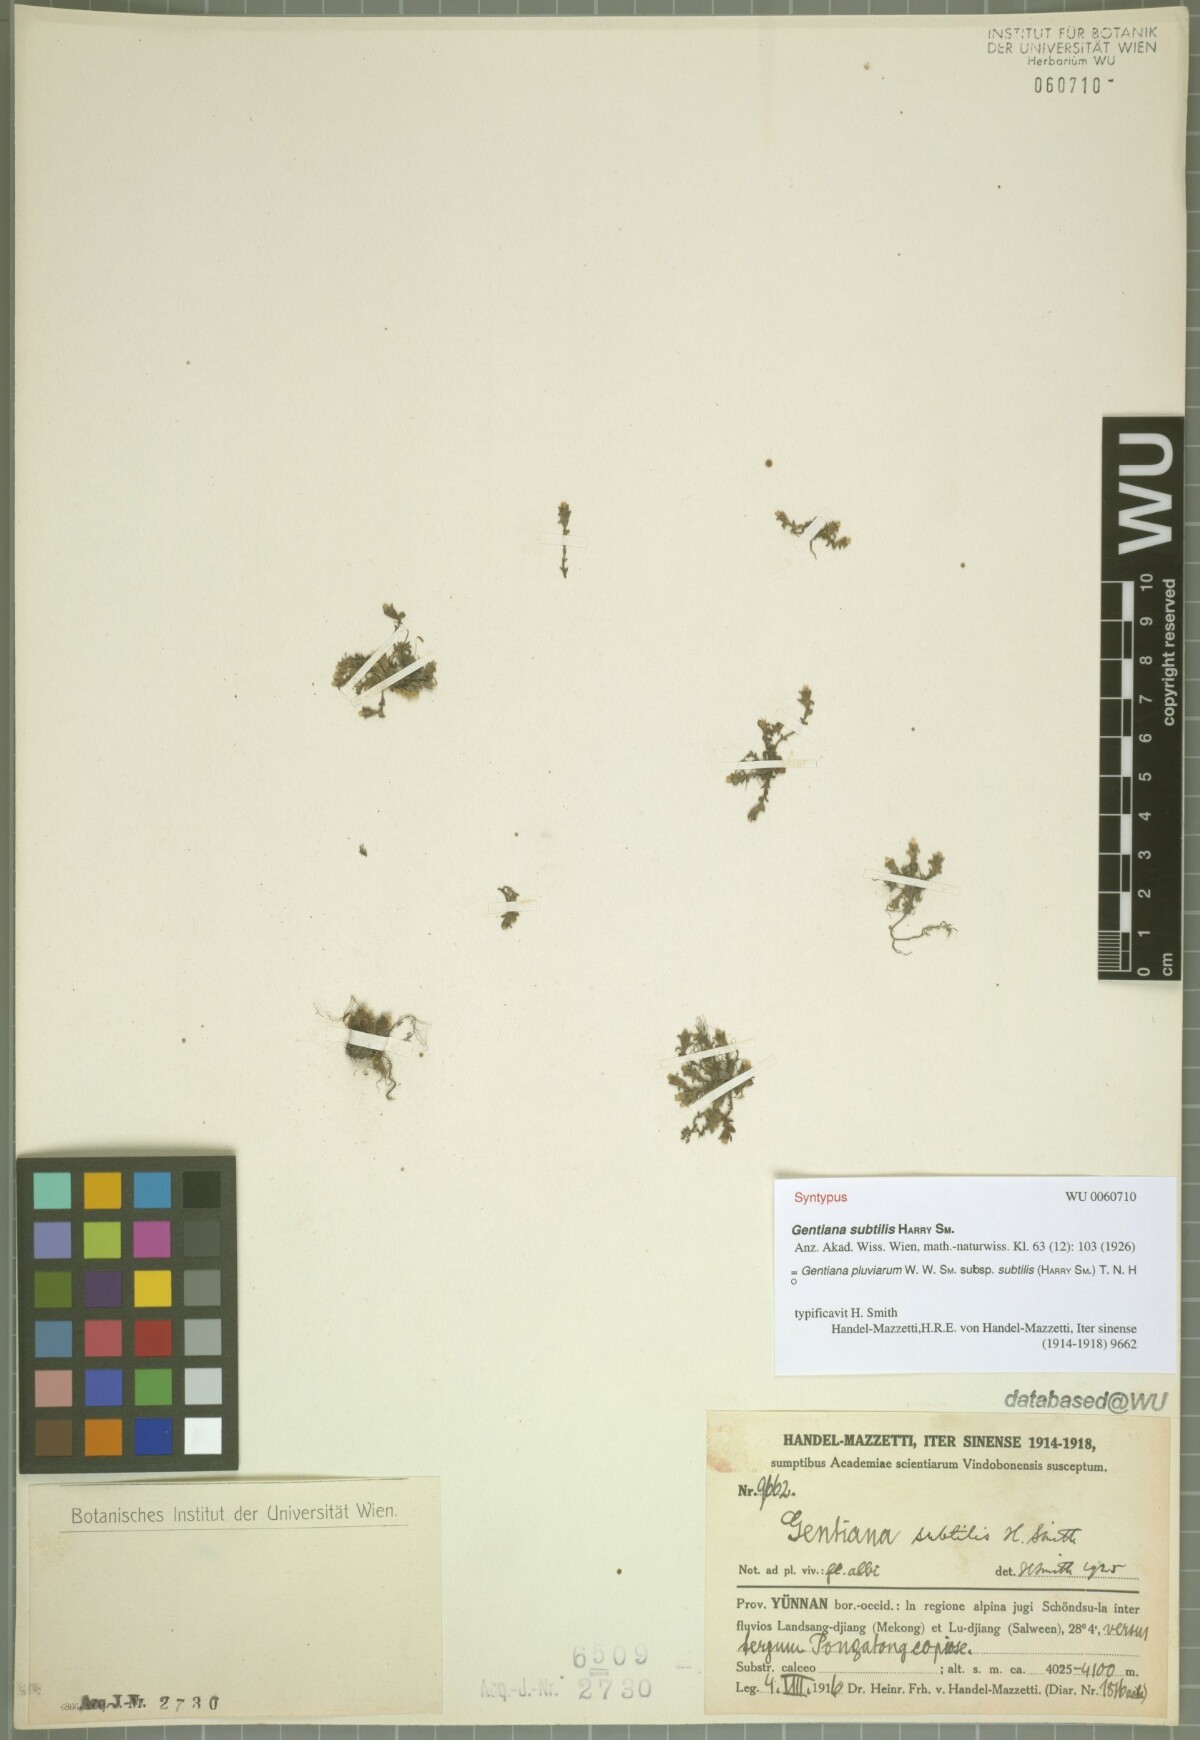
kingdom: Plantae
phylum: Tracheophyta
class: Magnoliopsida
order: Gentianales
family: Gentianaceae
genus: Gentiana
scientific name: Gentiana pulvinarum
